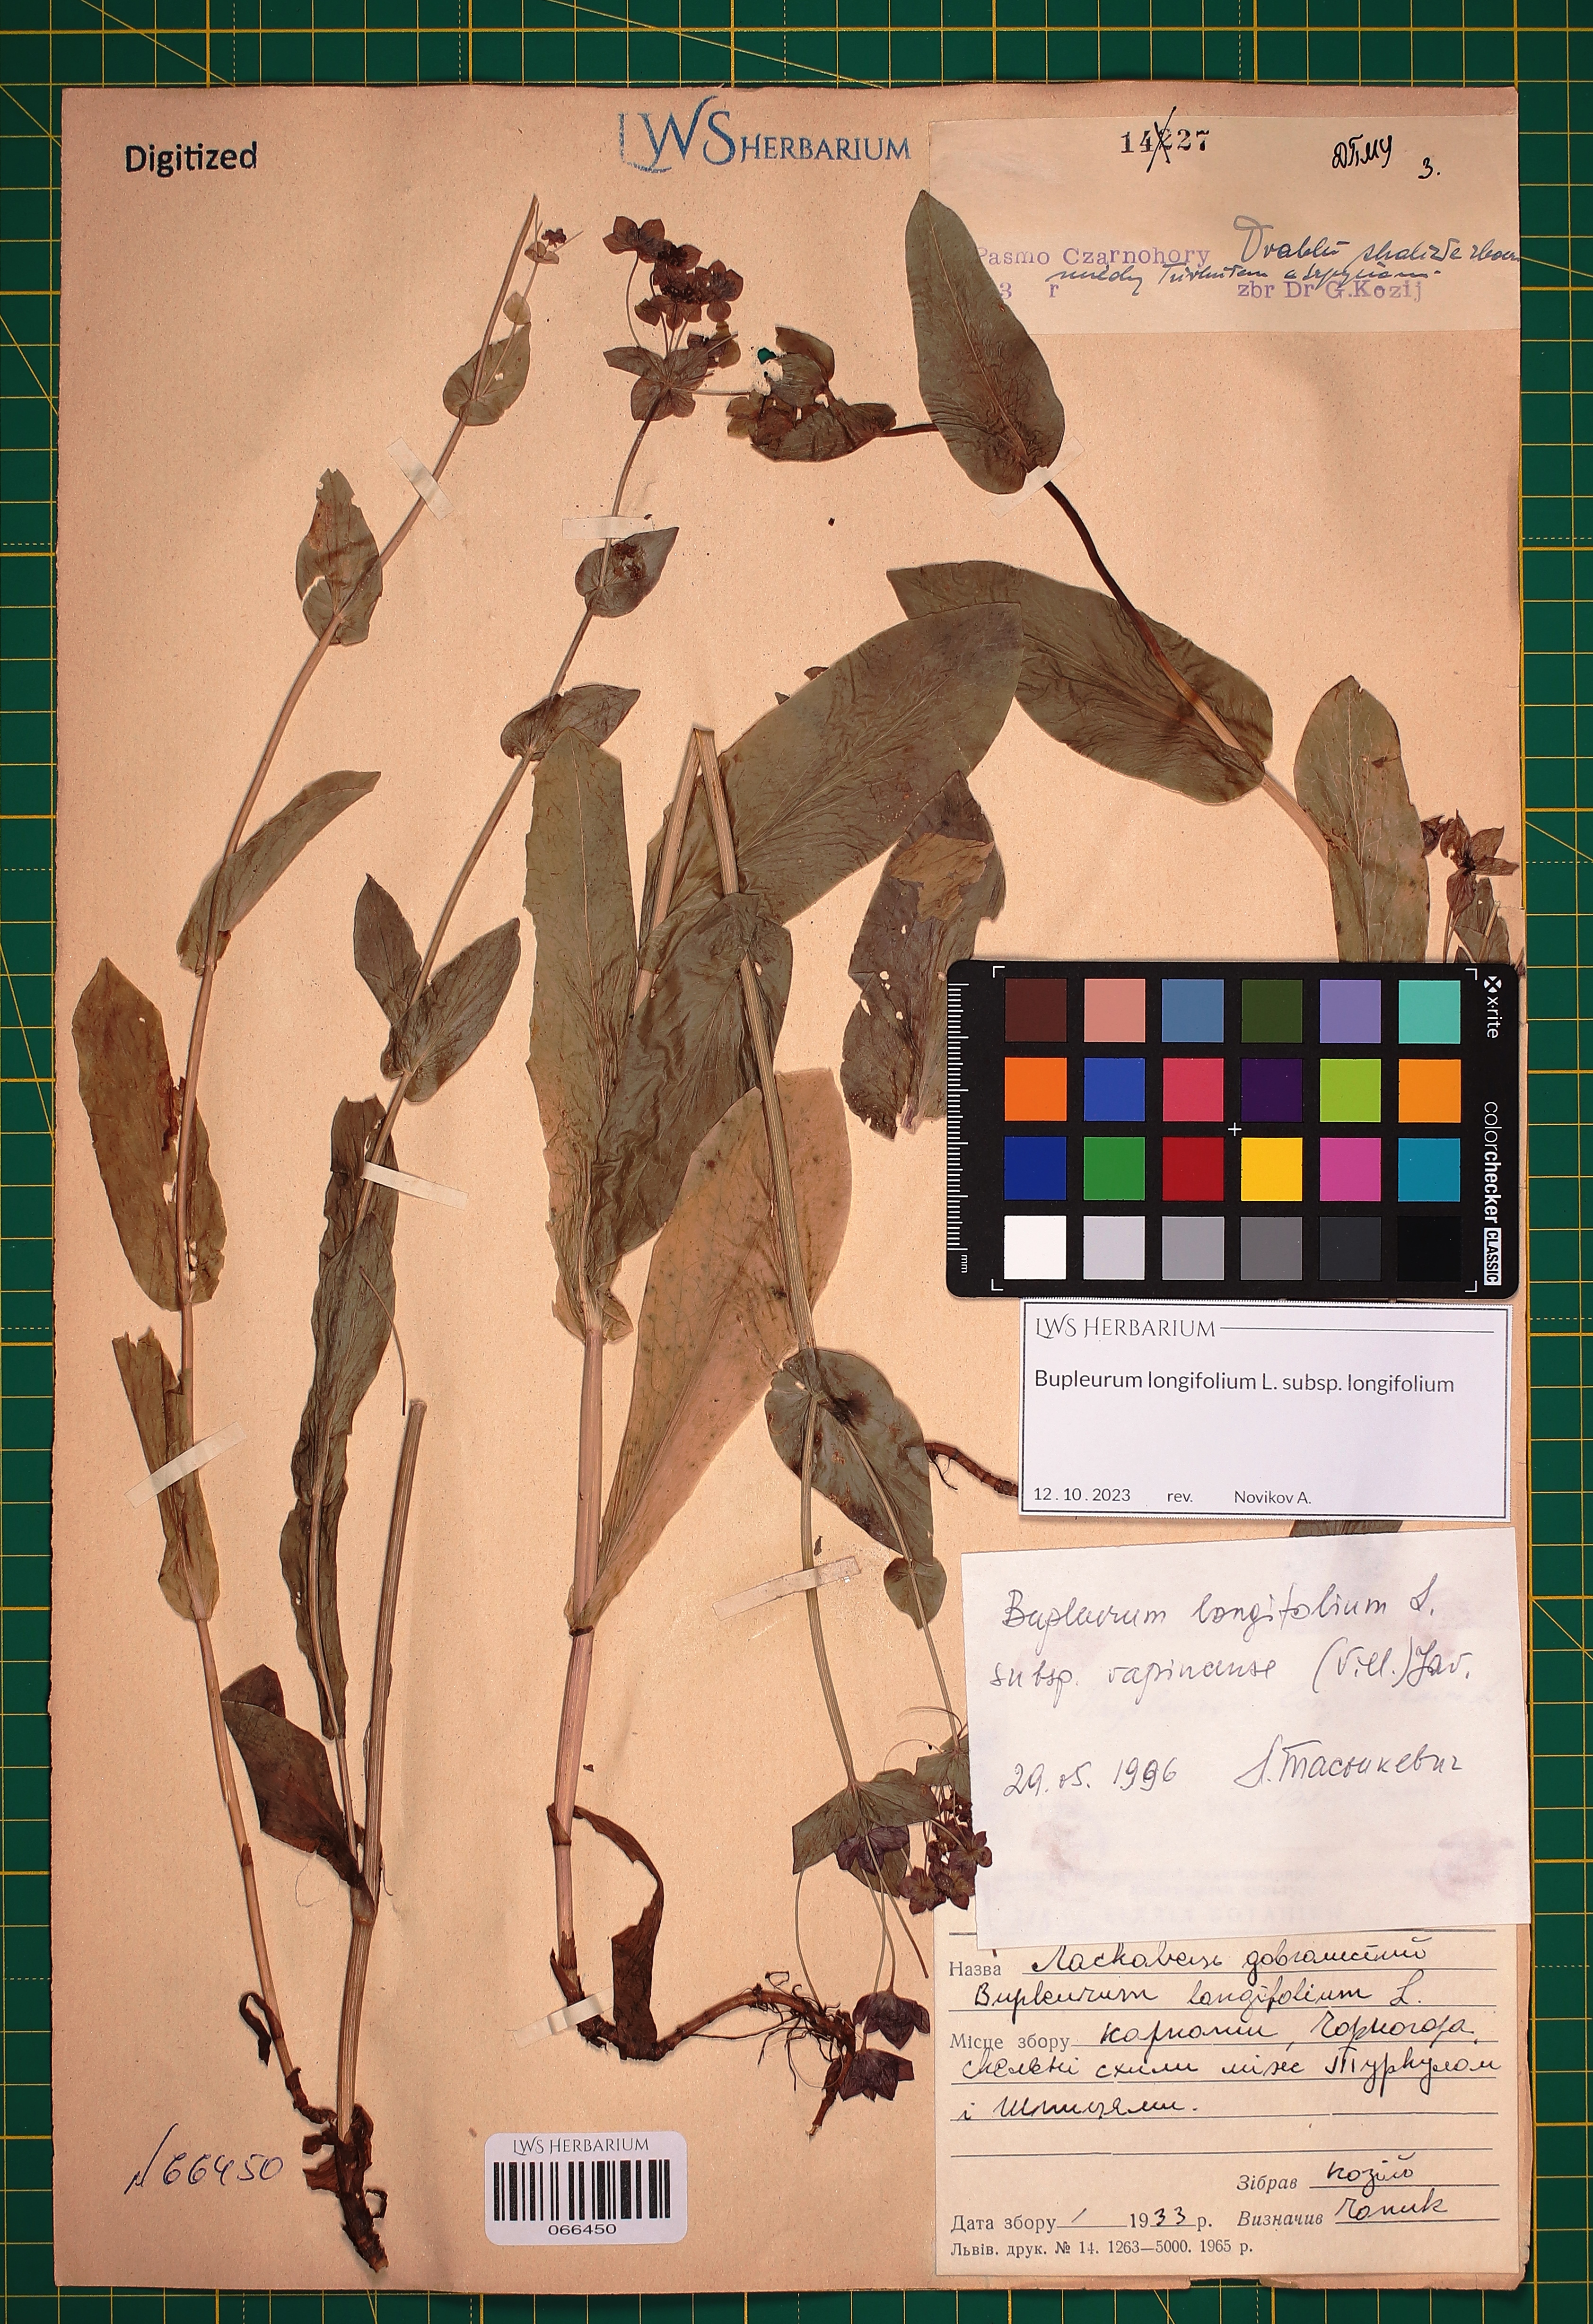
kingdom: Plantae
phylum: Tracheophyta
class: Magnoliopsida
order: Apiales
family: Apiaceae
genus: Bupleurum
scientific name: Bupleurum longifolium
